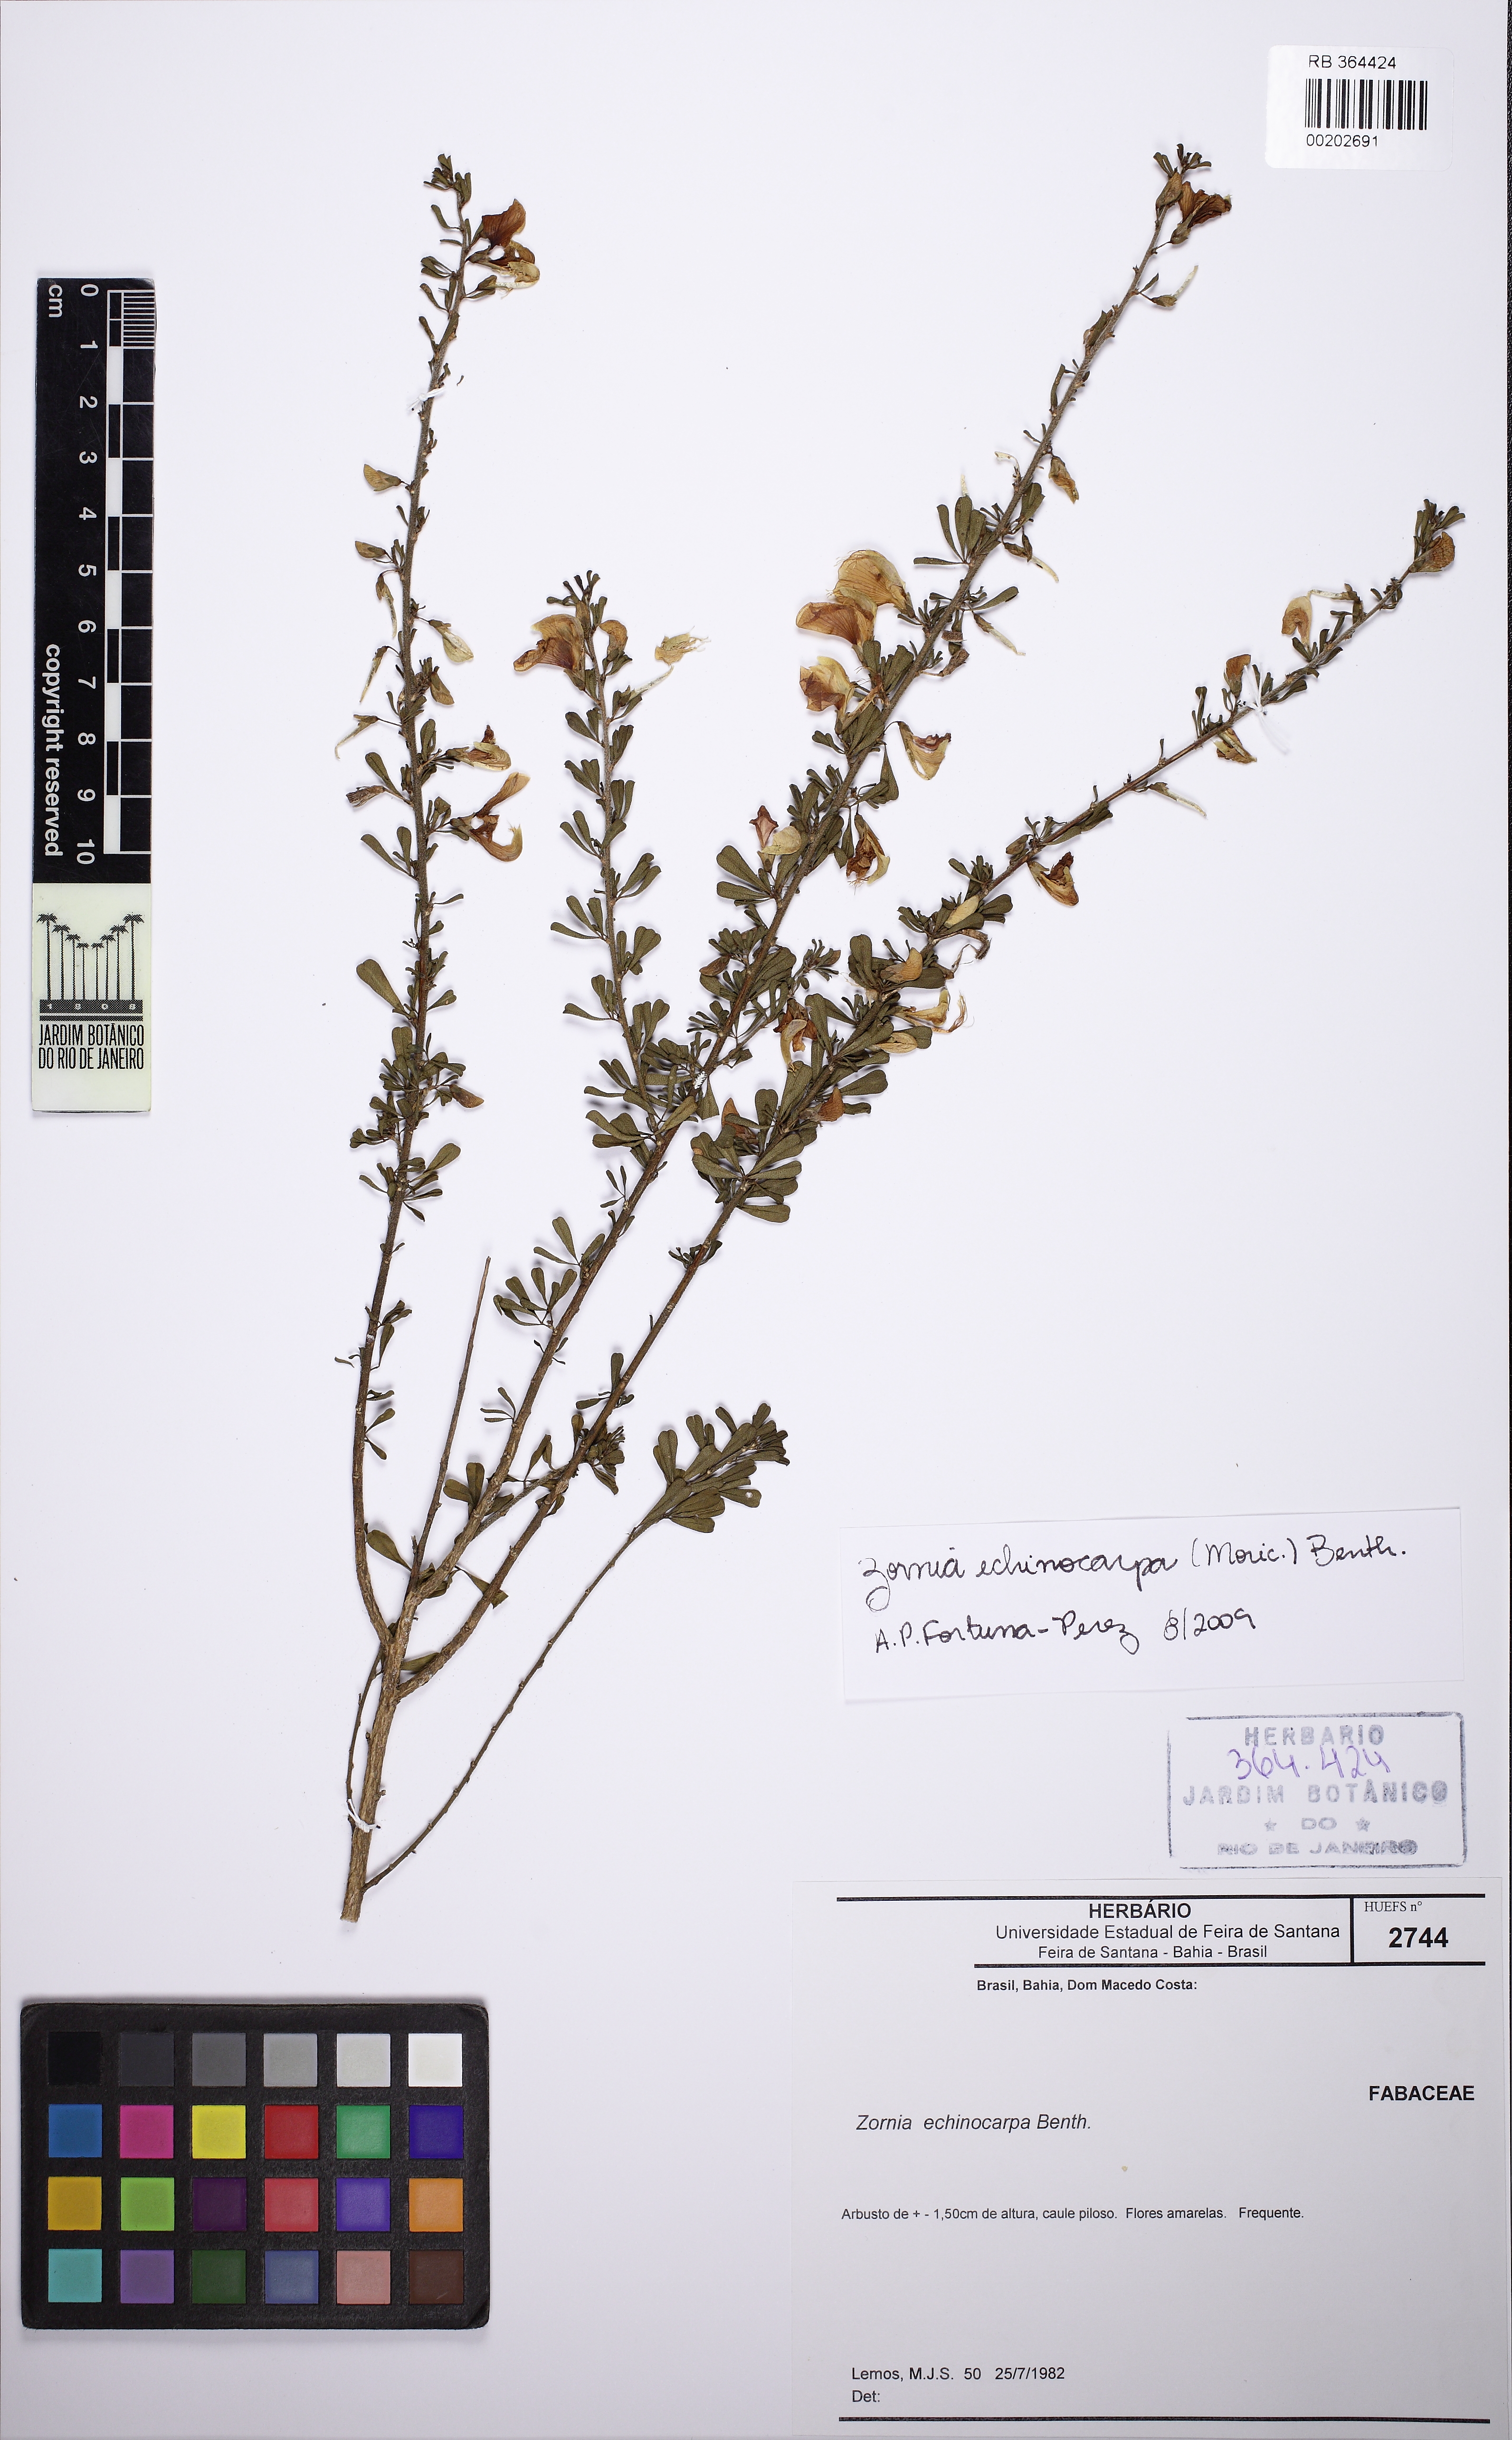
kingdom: Plantae
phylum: Tracheophyta
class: Magnoliopsida
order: Fabales
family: Fabaceae
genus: Zornia
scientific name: Zornia echinocarpa
